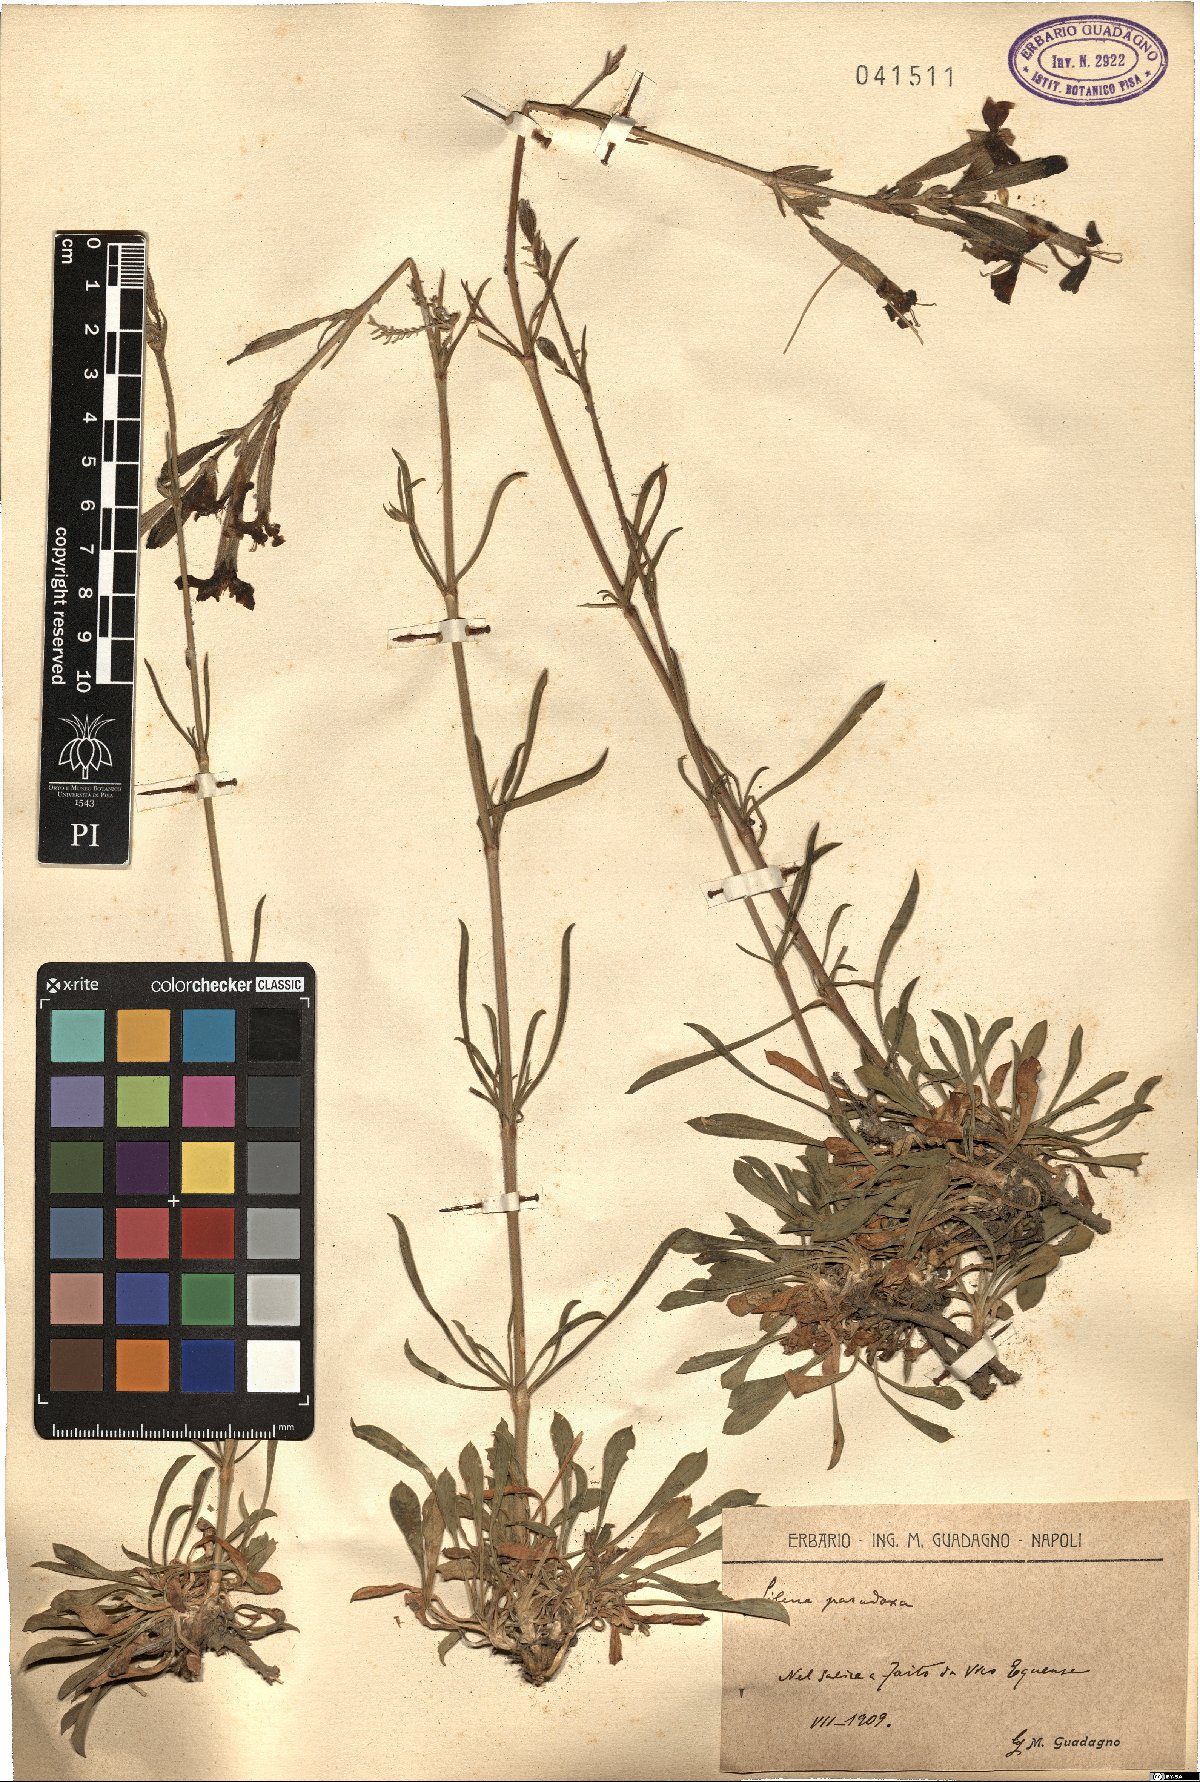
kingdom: Plantae
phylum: Tracheophyta
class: Magnoliopsida
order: Caryophyllales
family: Caryophyllaceae
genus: Silene
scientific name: Silene paradoxa
